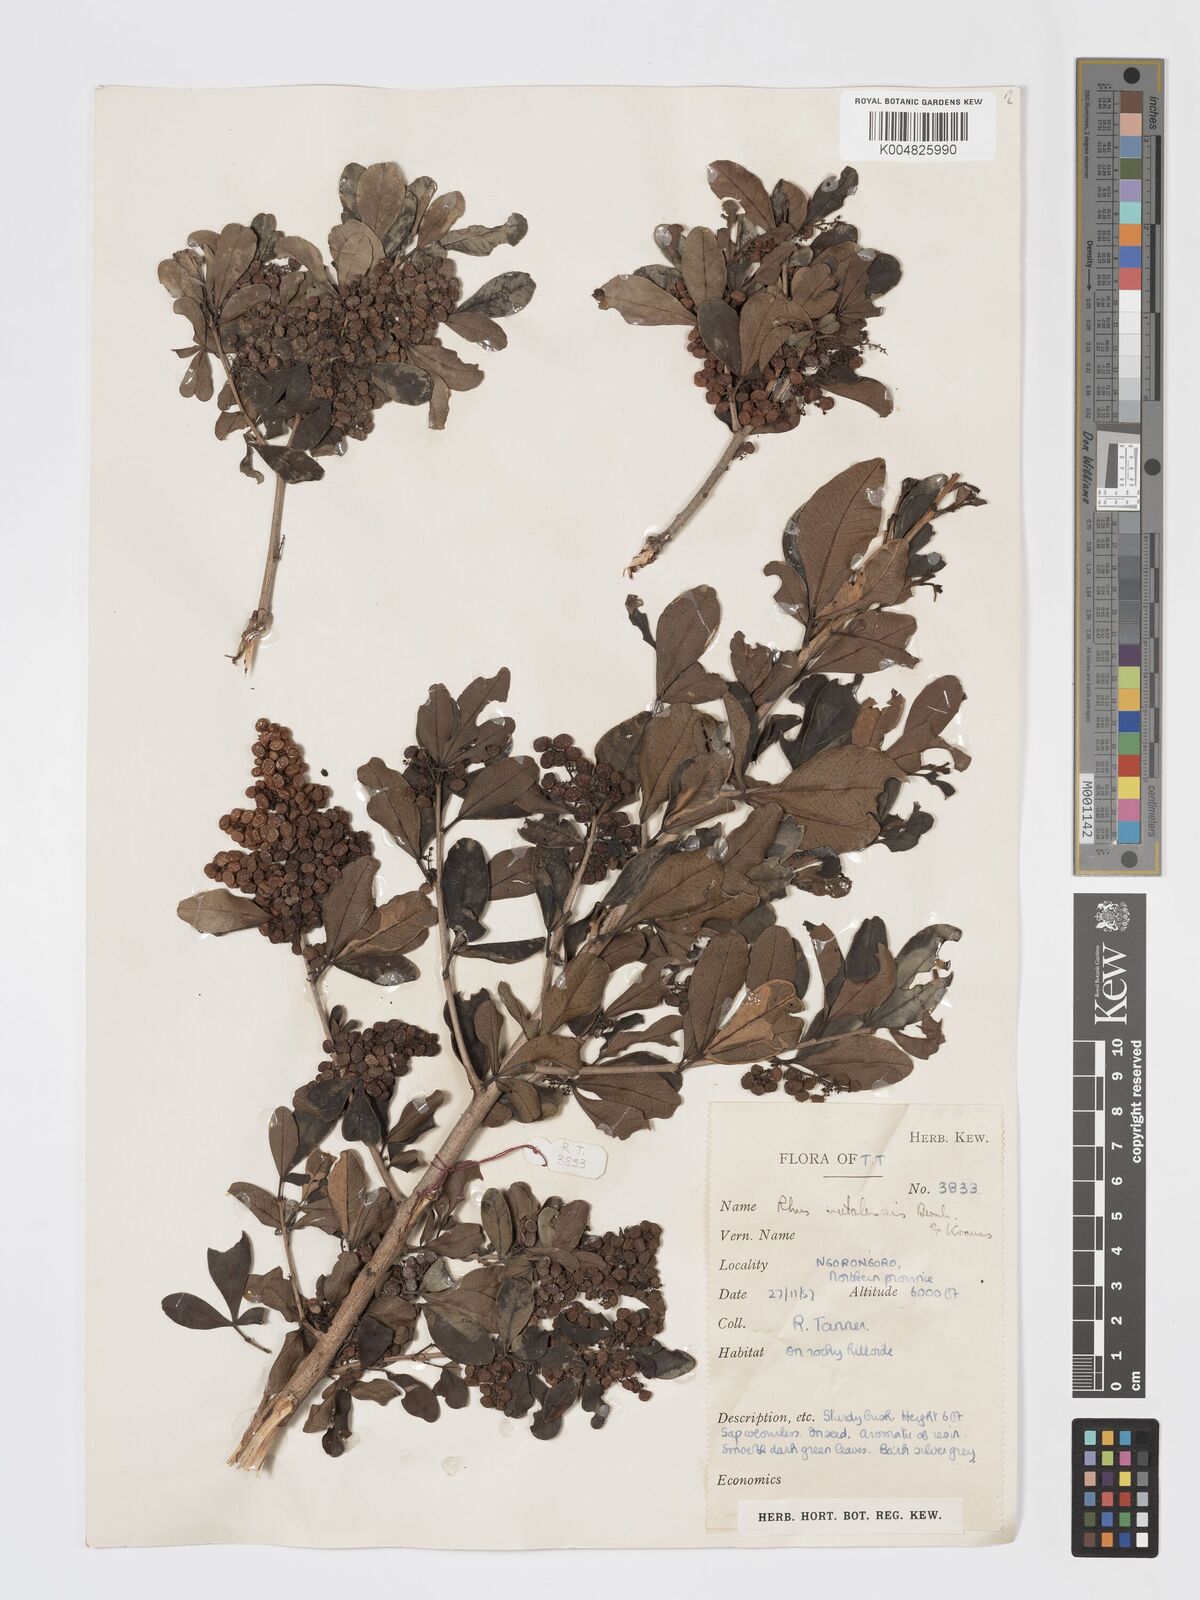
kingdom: Plantae
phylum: Tracheophyta
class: Magnoliopsida
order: Sapindales
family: Anacardiaceae
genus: Searsia
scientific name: Searsia natalensis
